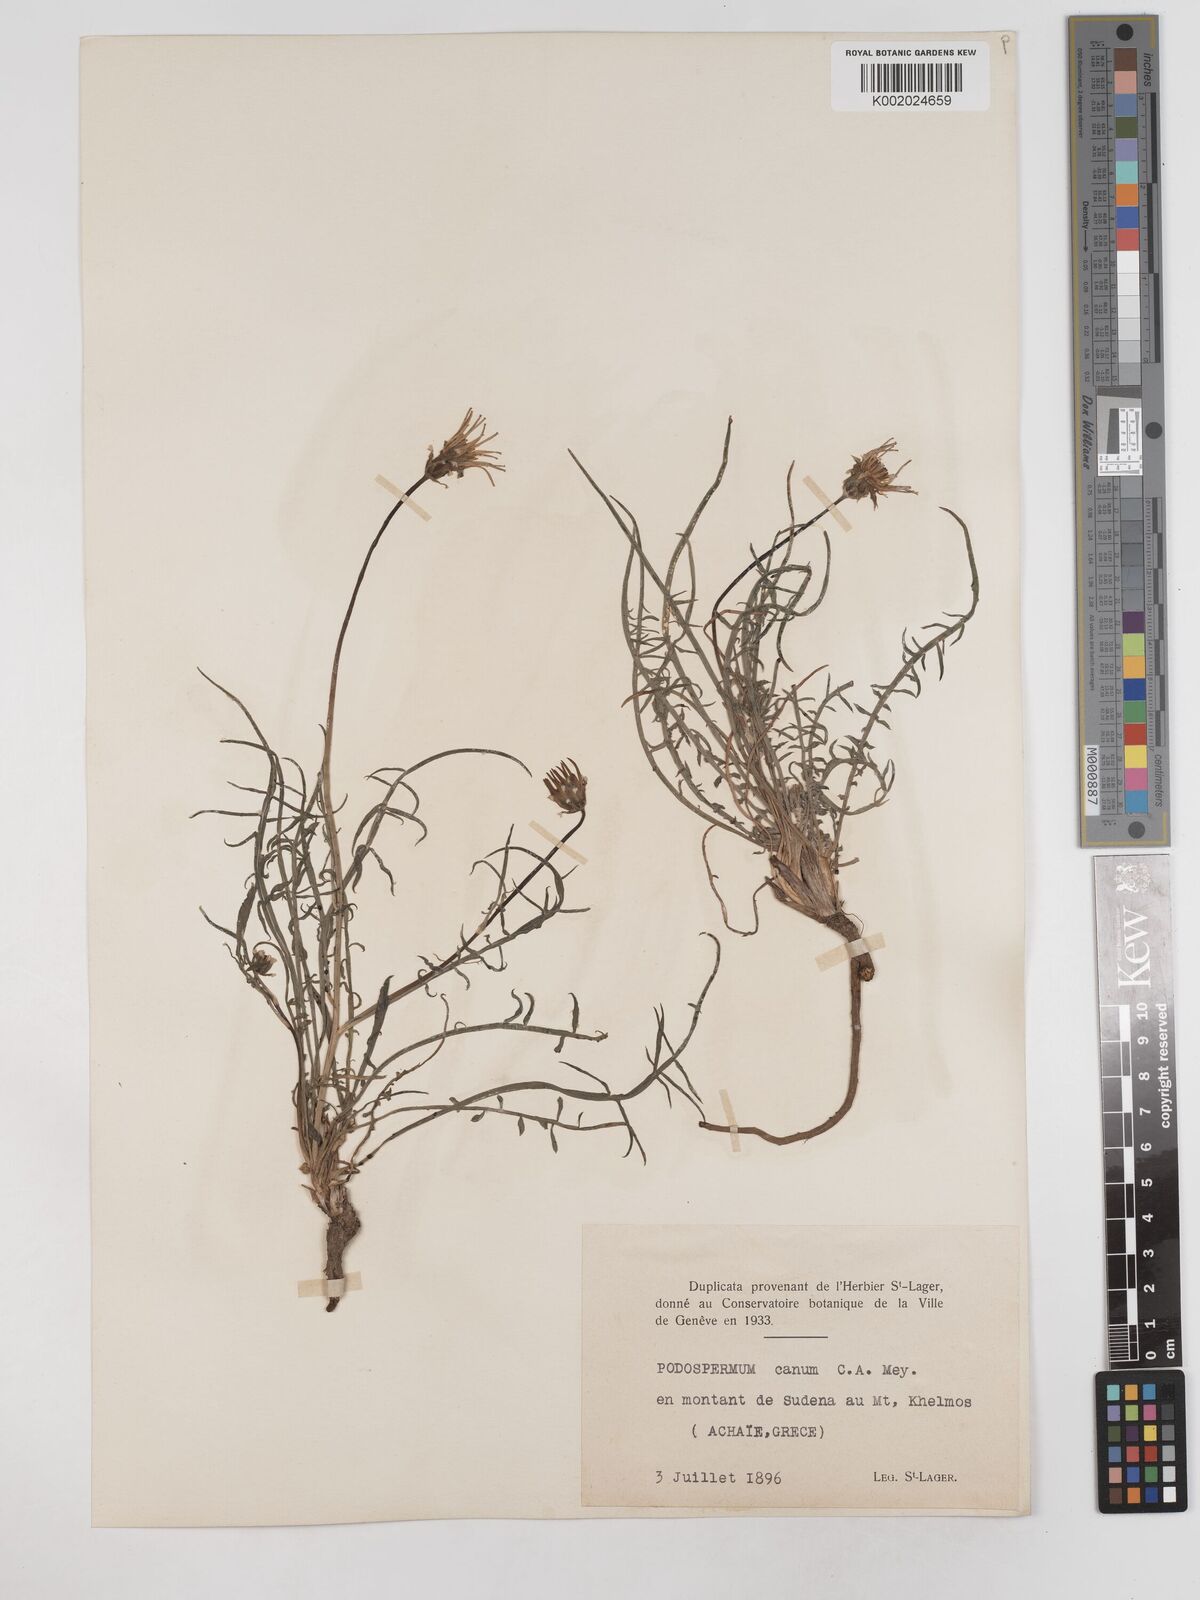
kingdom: Plantae
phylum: Tracheophyta
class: Magnoliopsida
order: Asterales
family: Asteraceae
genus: Scorzonera
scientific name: Scorzonera cana
